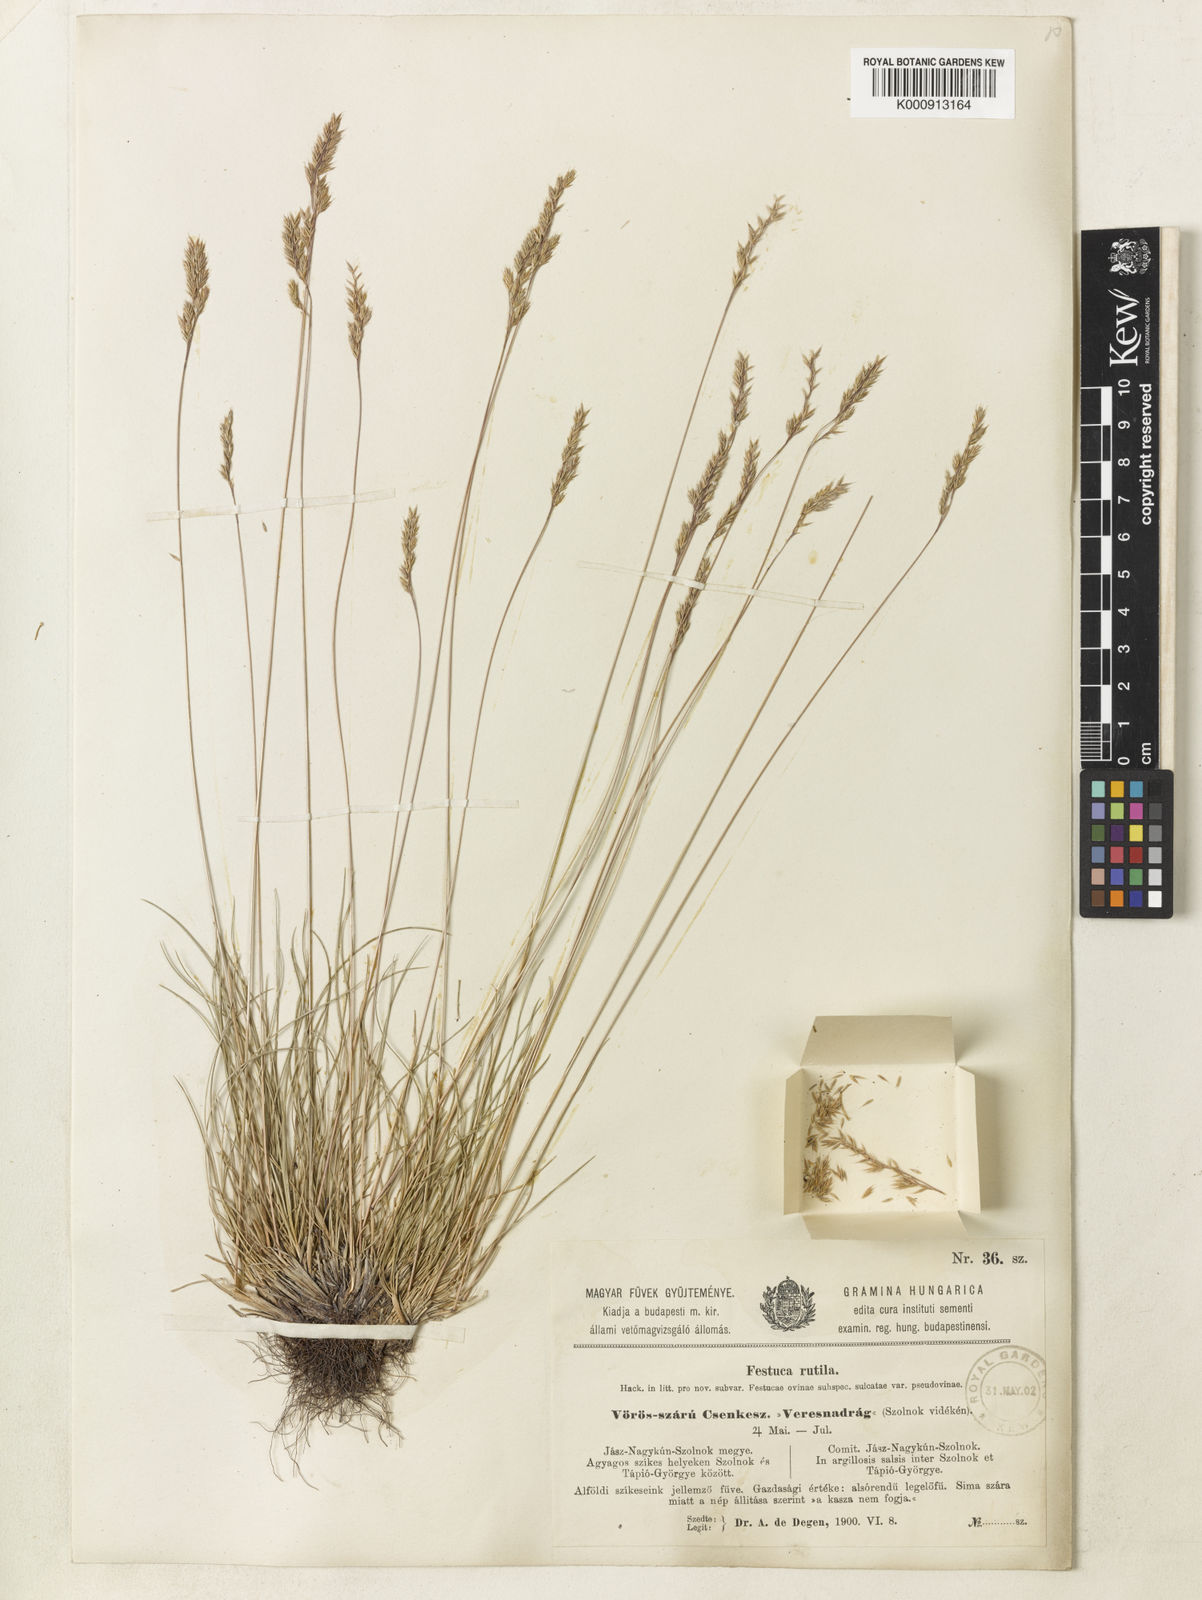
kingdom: Plantae
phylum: Tracheophyta
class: Liliopsida
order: Poales
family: Poaceae
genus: Festuca
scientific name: Festuca pulchra
